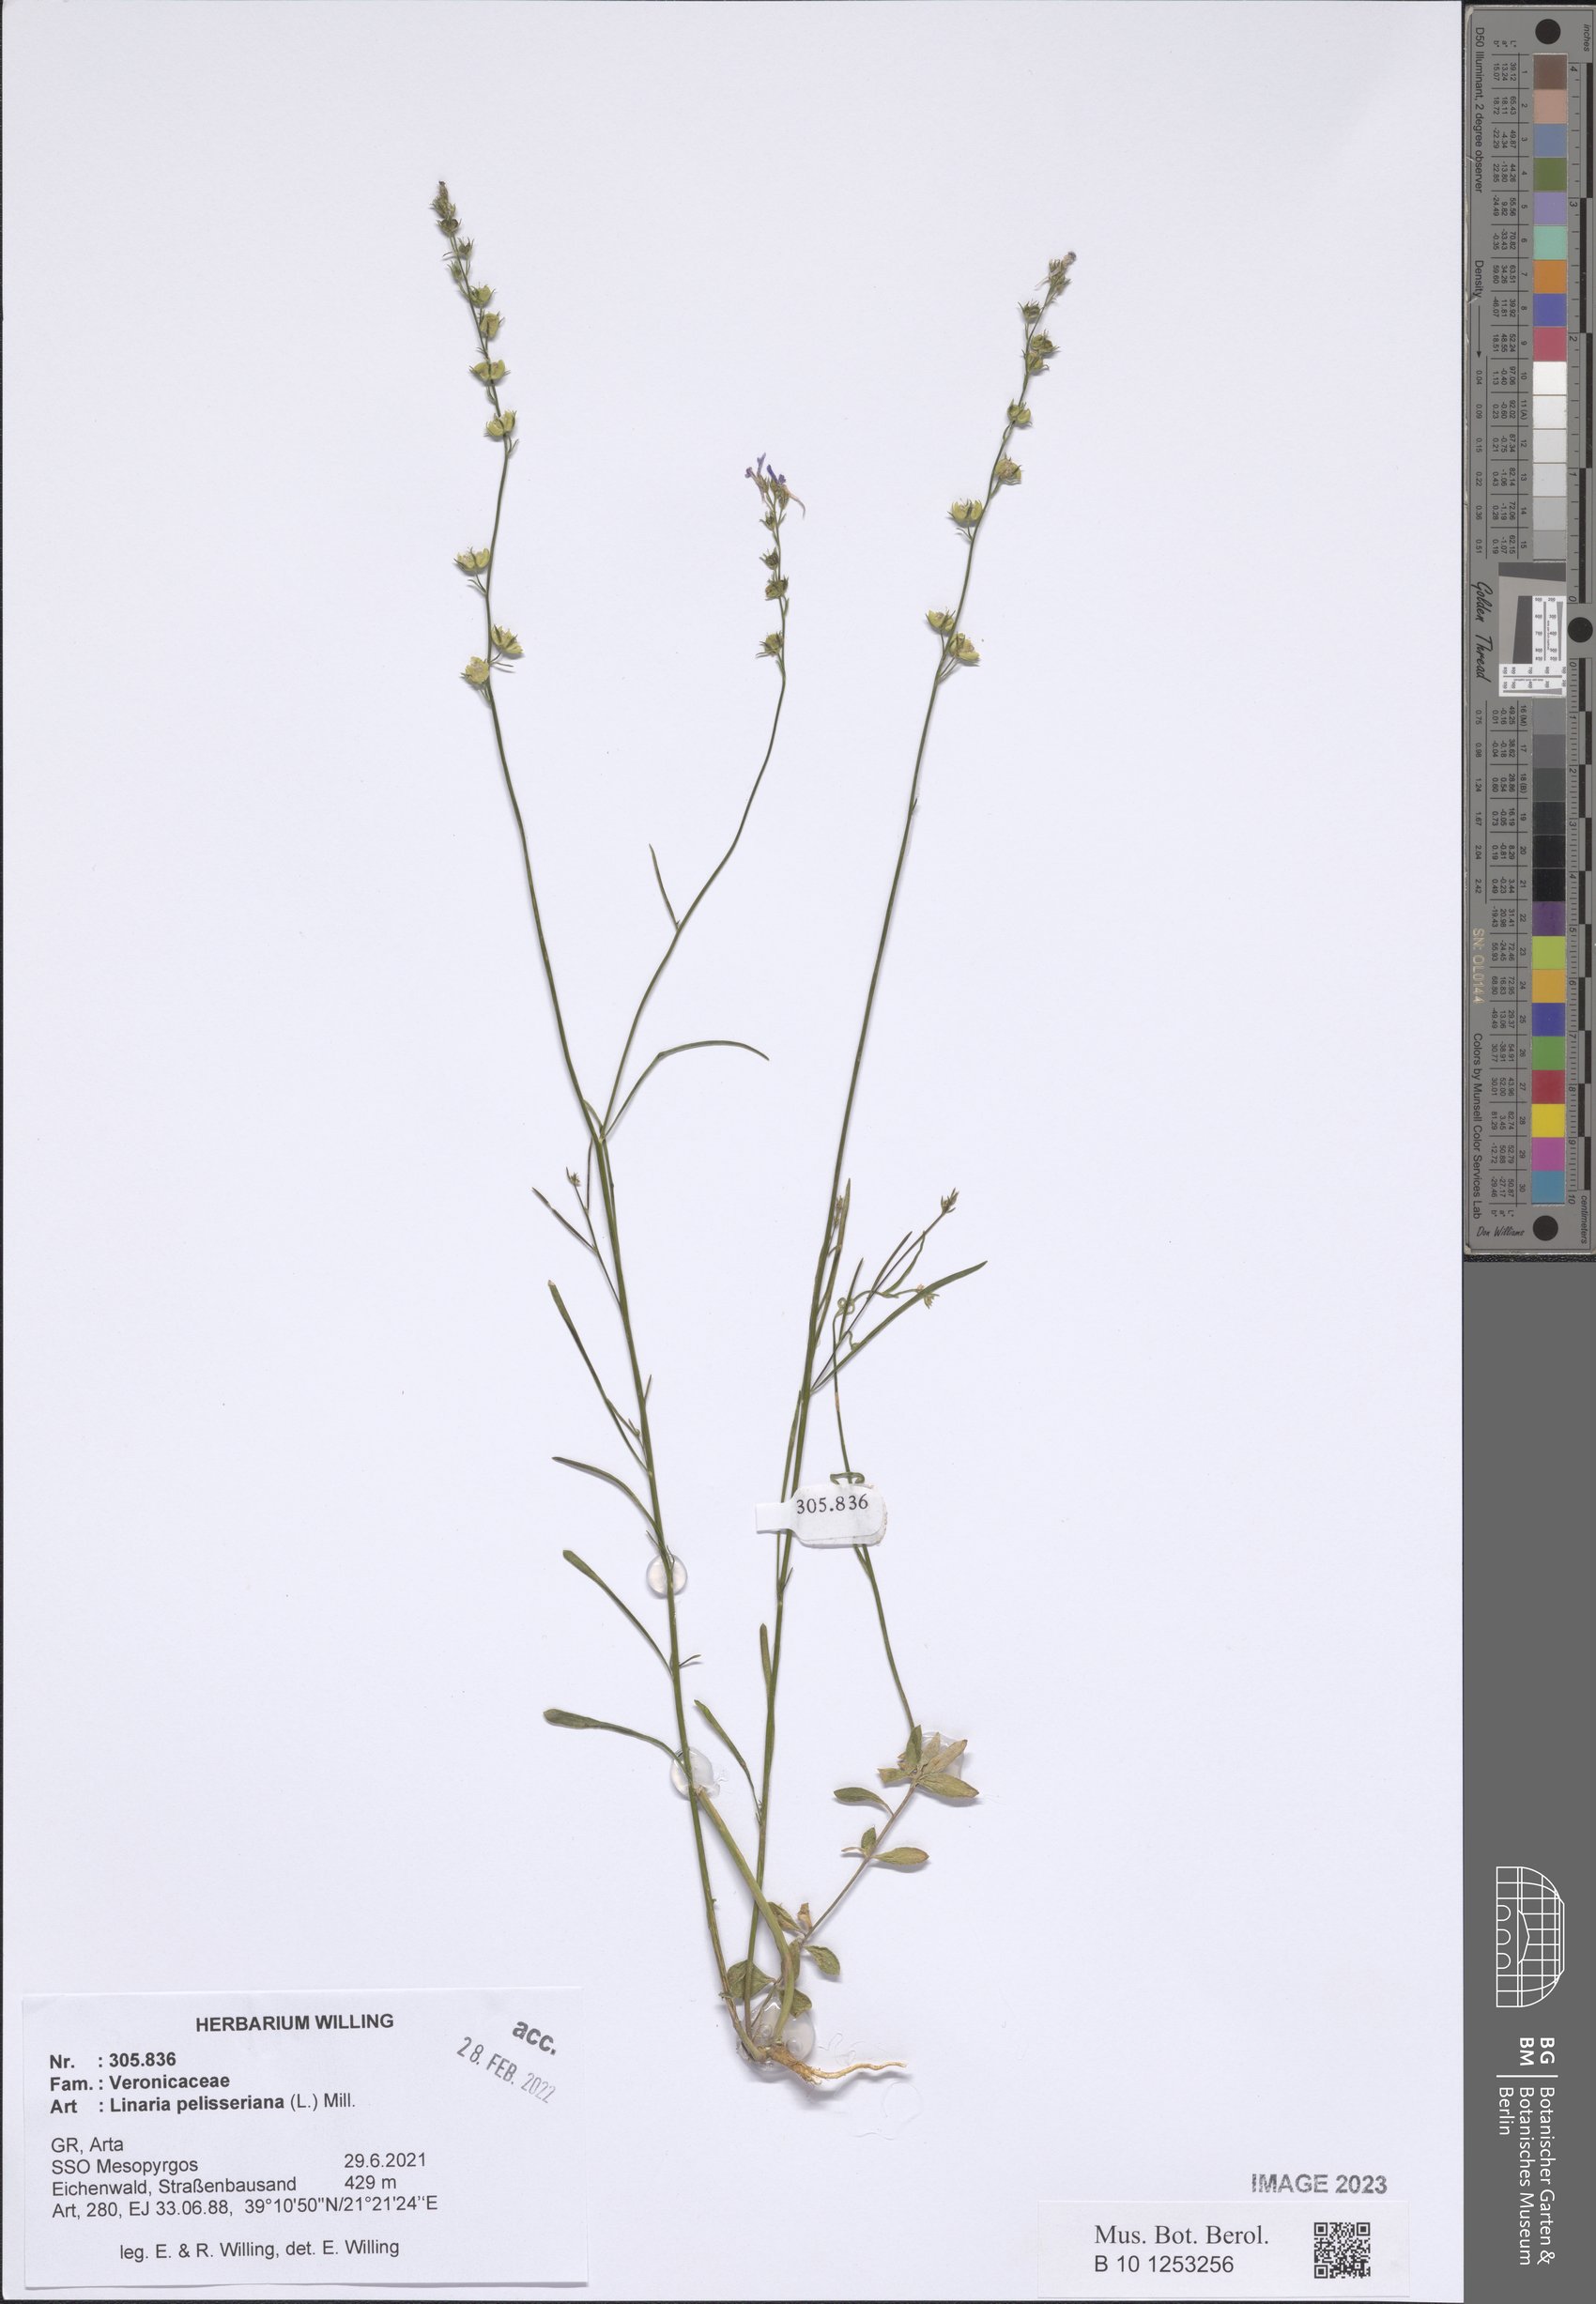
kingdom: Plantae
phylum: Tracheophyta
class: Magnoliopsida
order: Lamiales
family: Plantaginaceae
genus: Linaria
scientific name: Linaria pelisseriana
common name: Jersey toadflax
